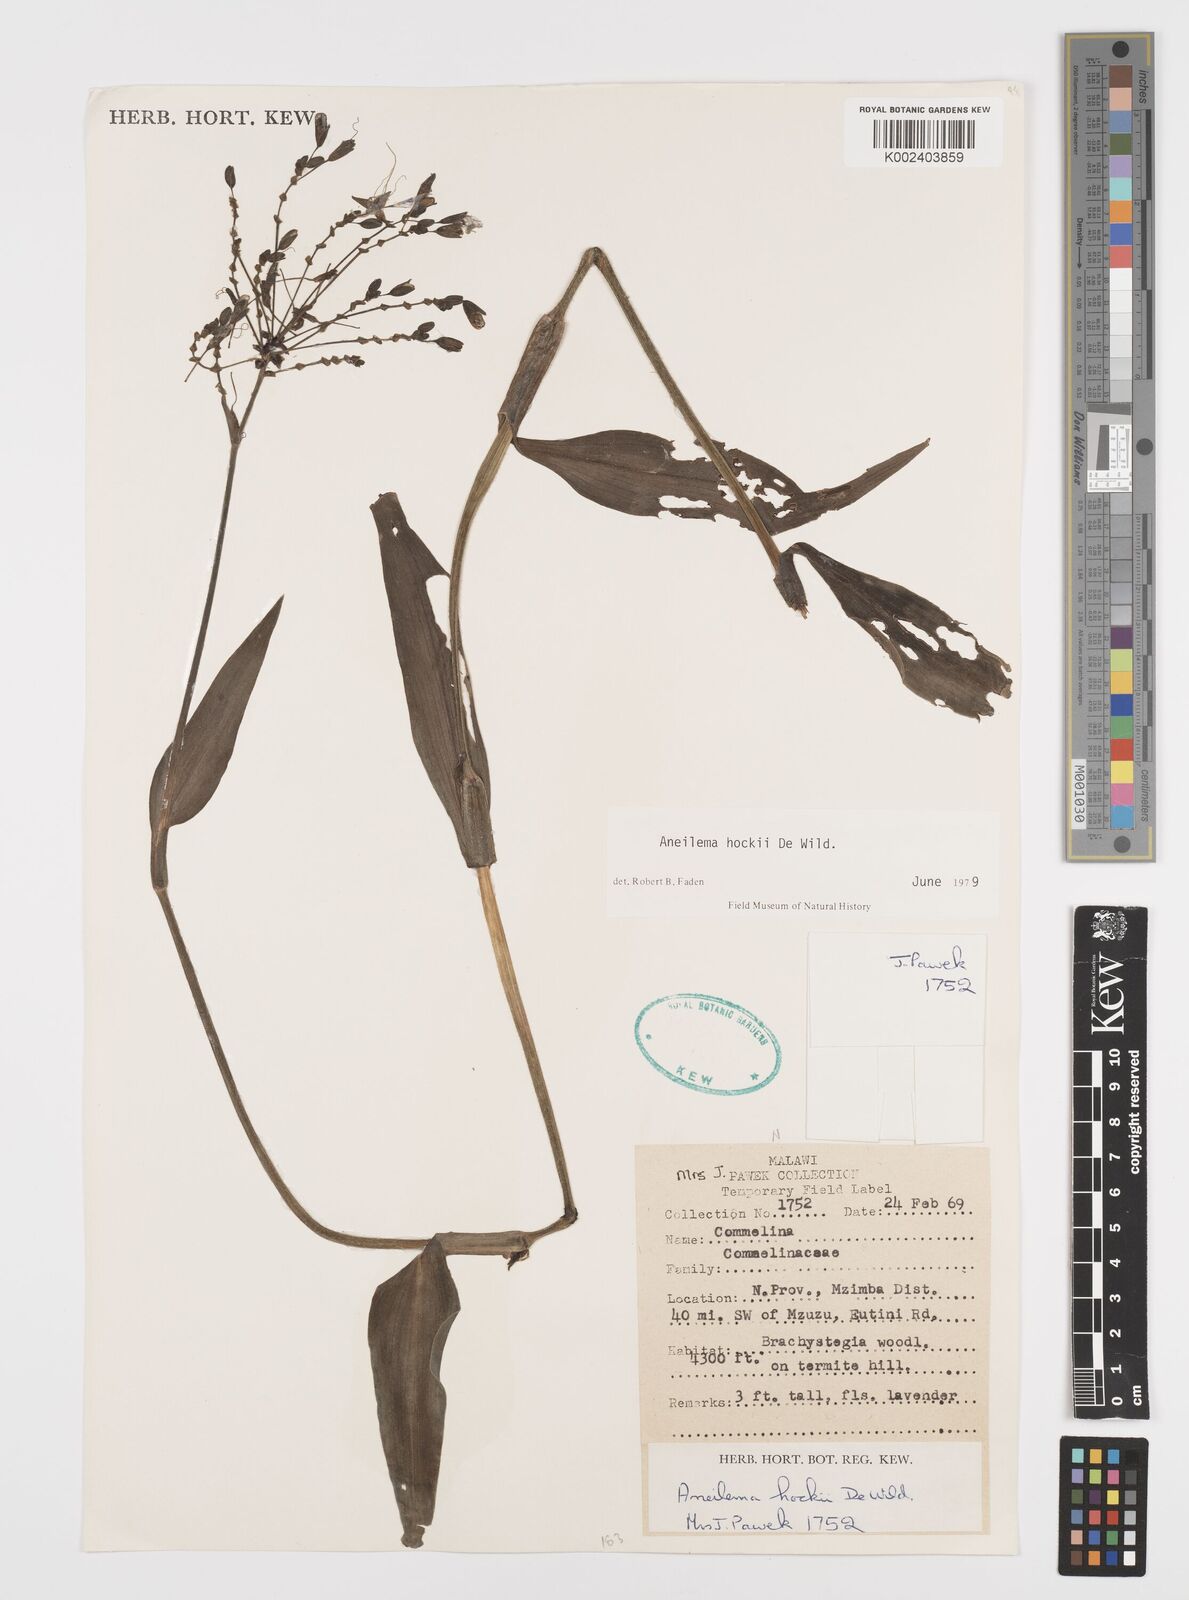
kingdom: Plantae
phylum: Tracheophyta
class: Liliopsida
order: Commelinales
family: Commelinaceae
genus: Aneilema
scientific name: Aneilema hockii
